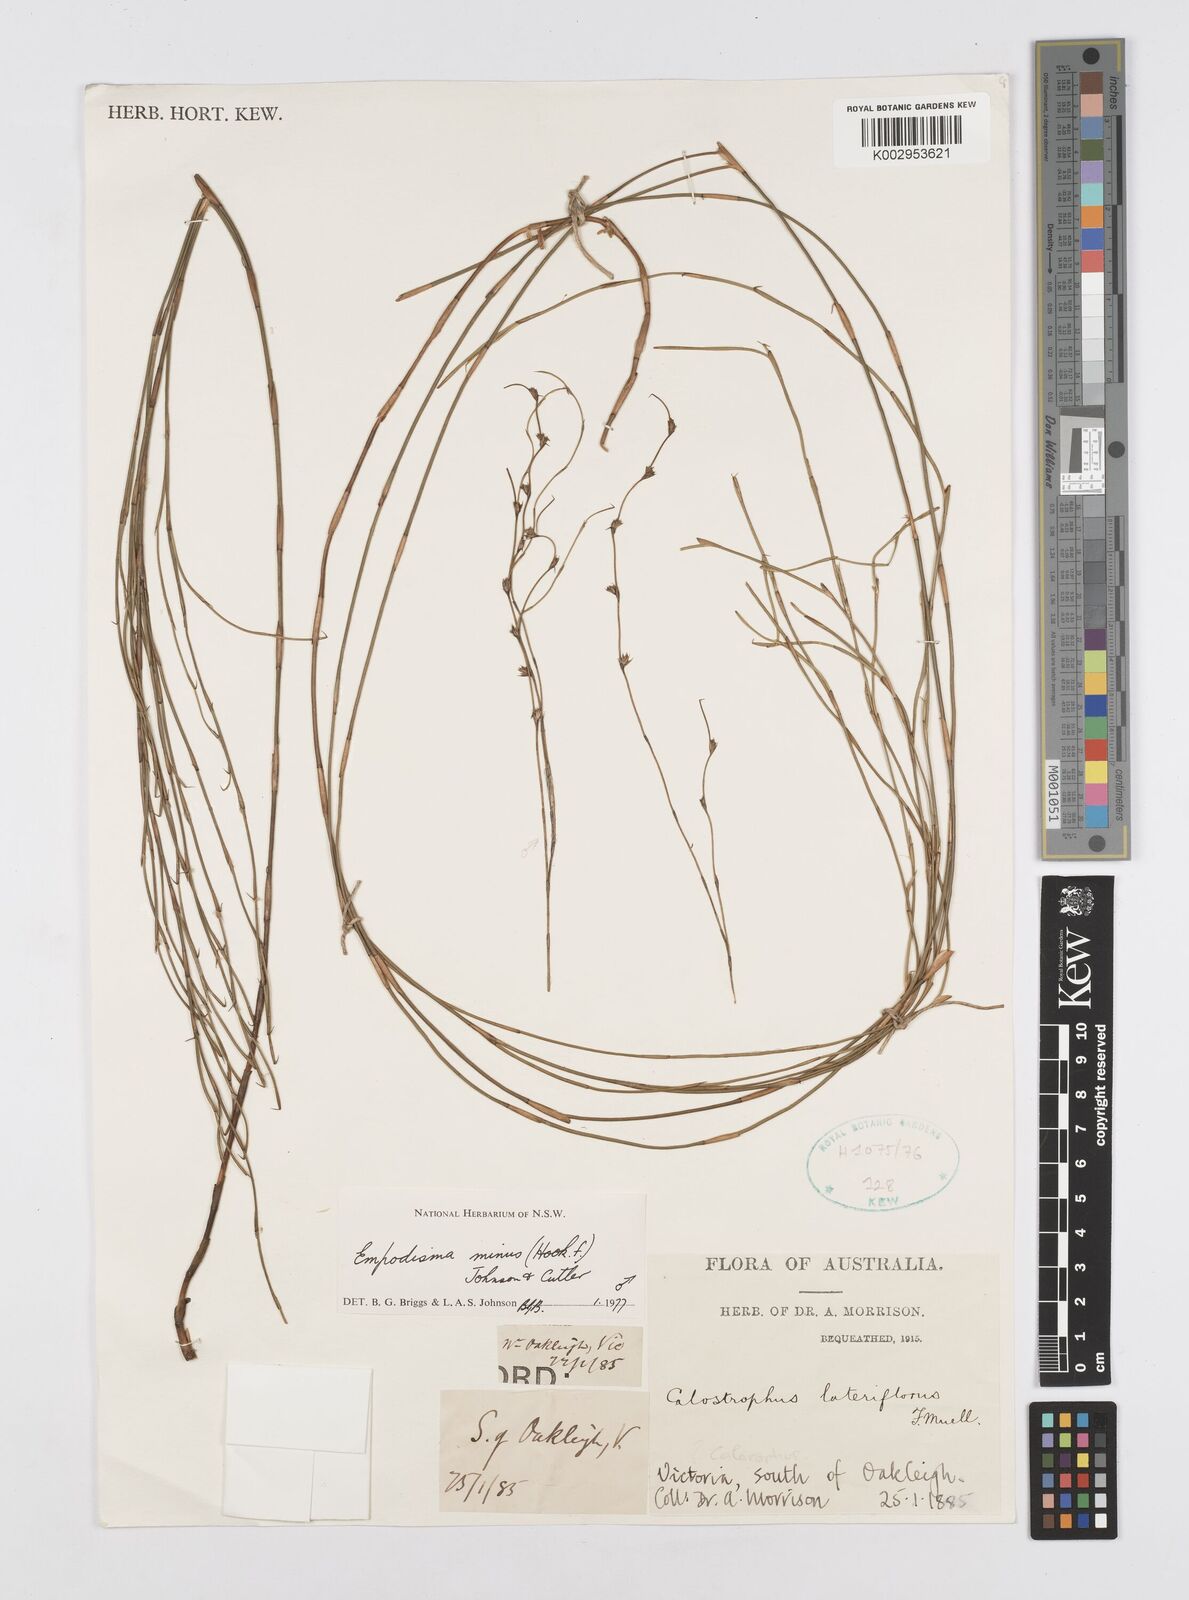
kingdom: Plantae
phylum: Tracheophyta
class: Liliopsida
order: Poales
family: Restionaceae
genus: Empodisma
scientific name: Empodisma minus
